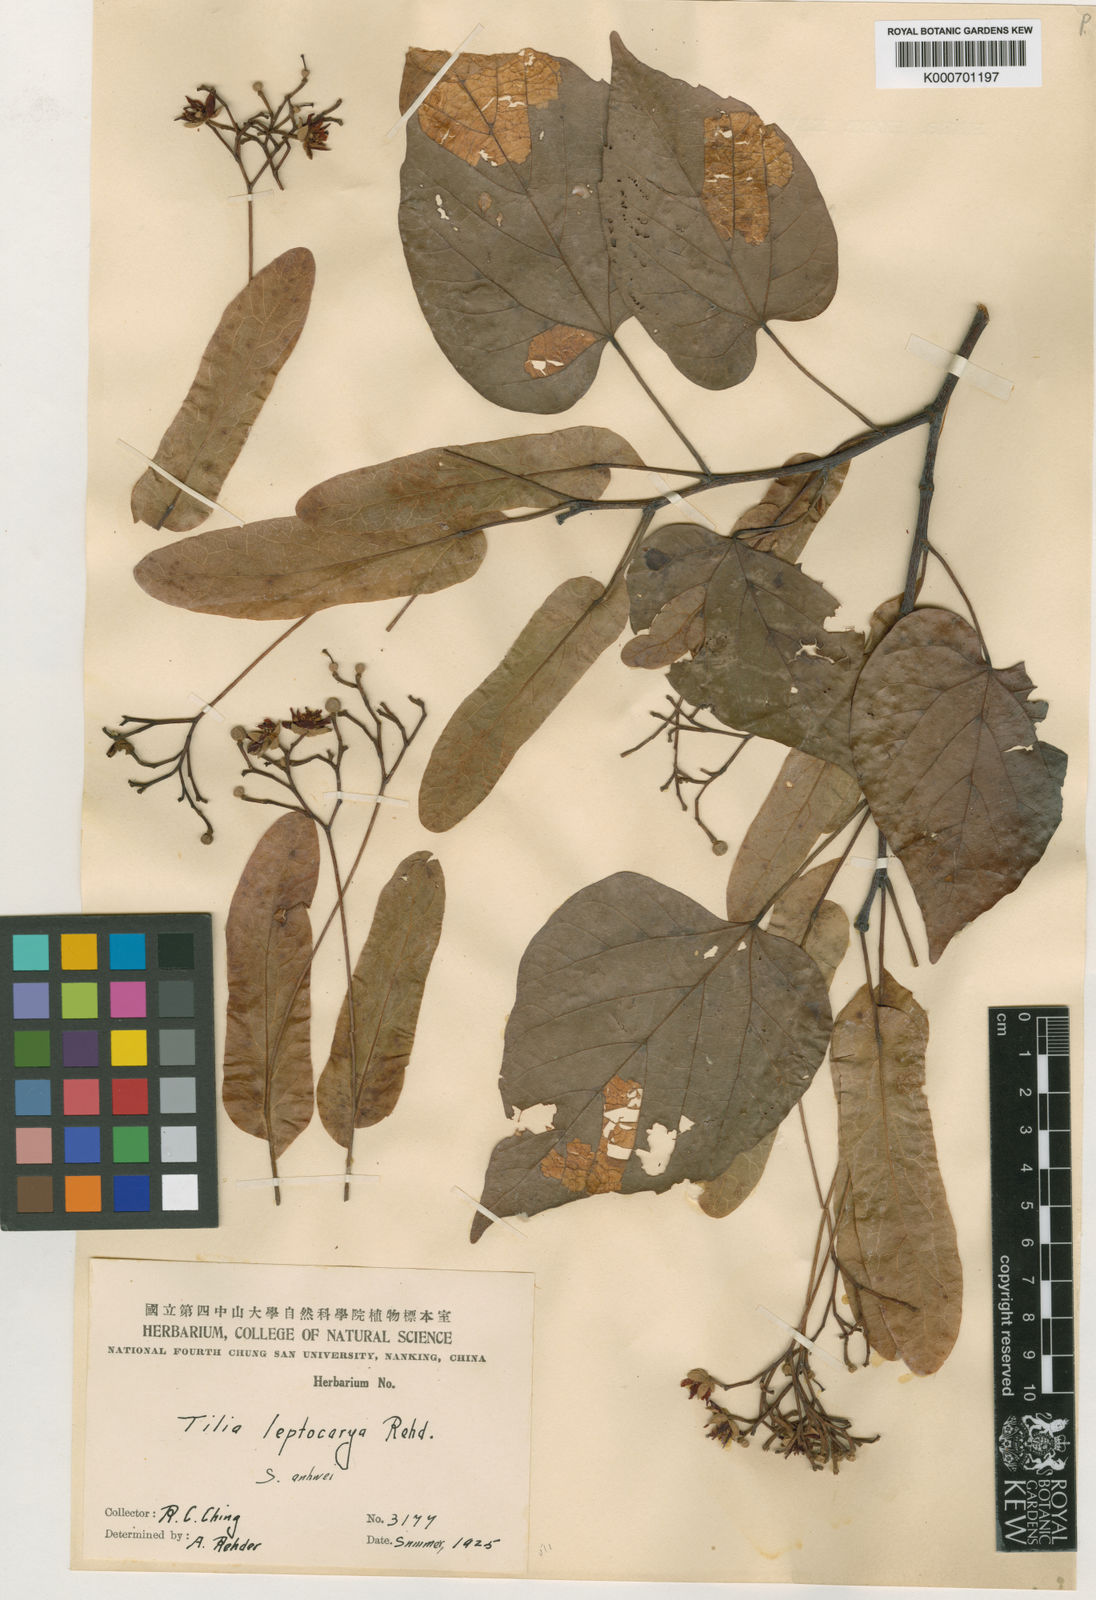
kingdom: Plantae
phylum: Tracheophyta
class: Magnoliopsida
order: Malvales
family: Malvaceae
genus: Tilia
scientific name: Tilia endochrysea
